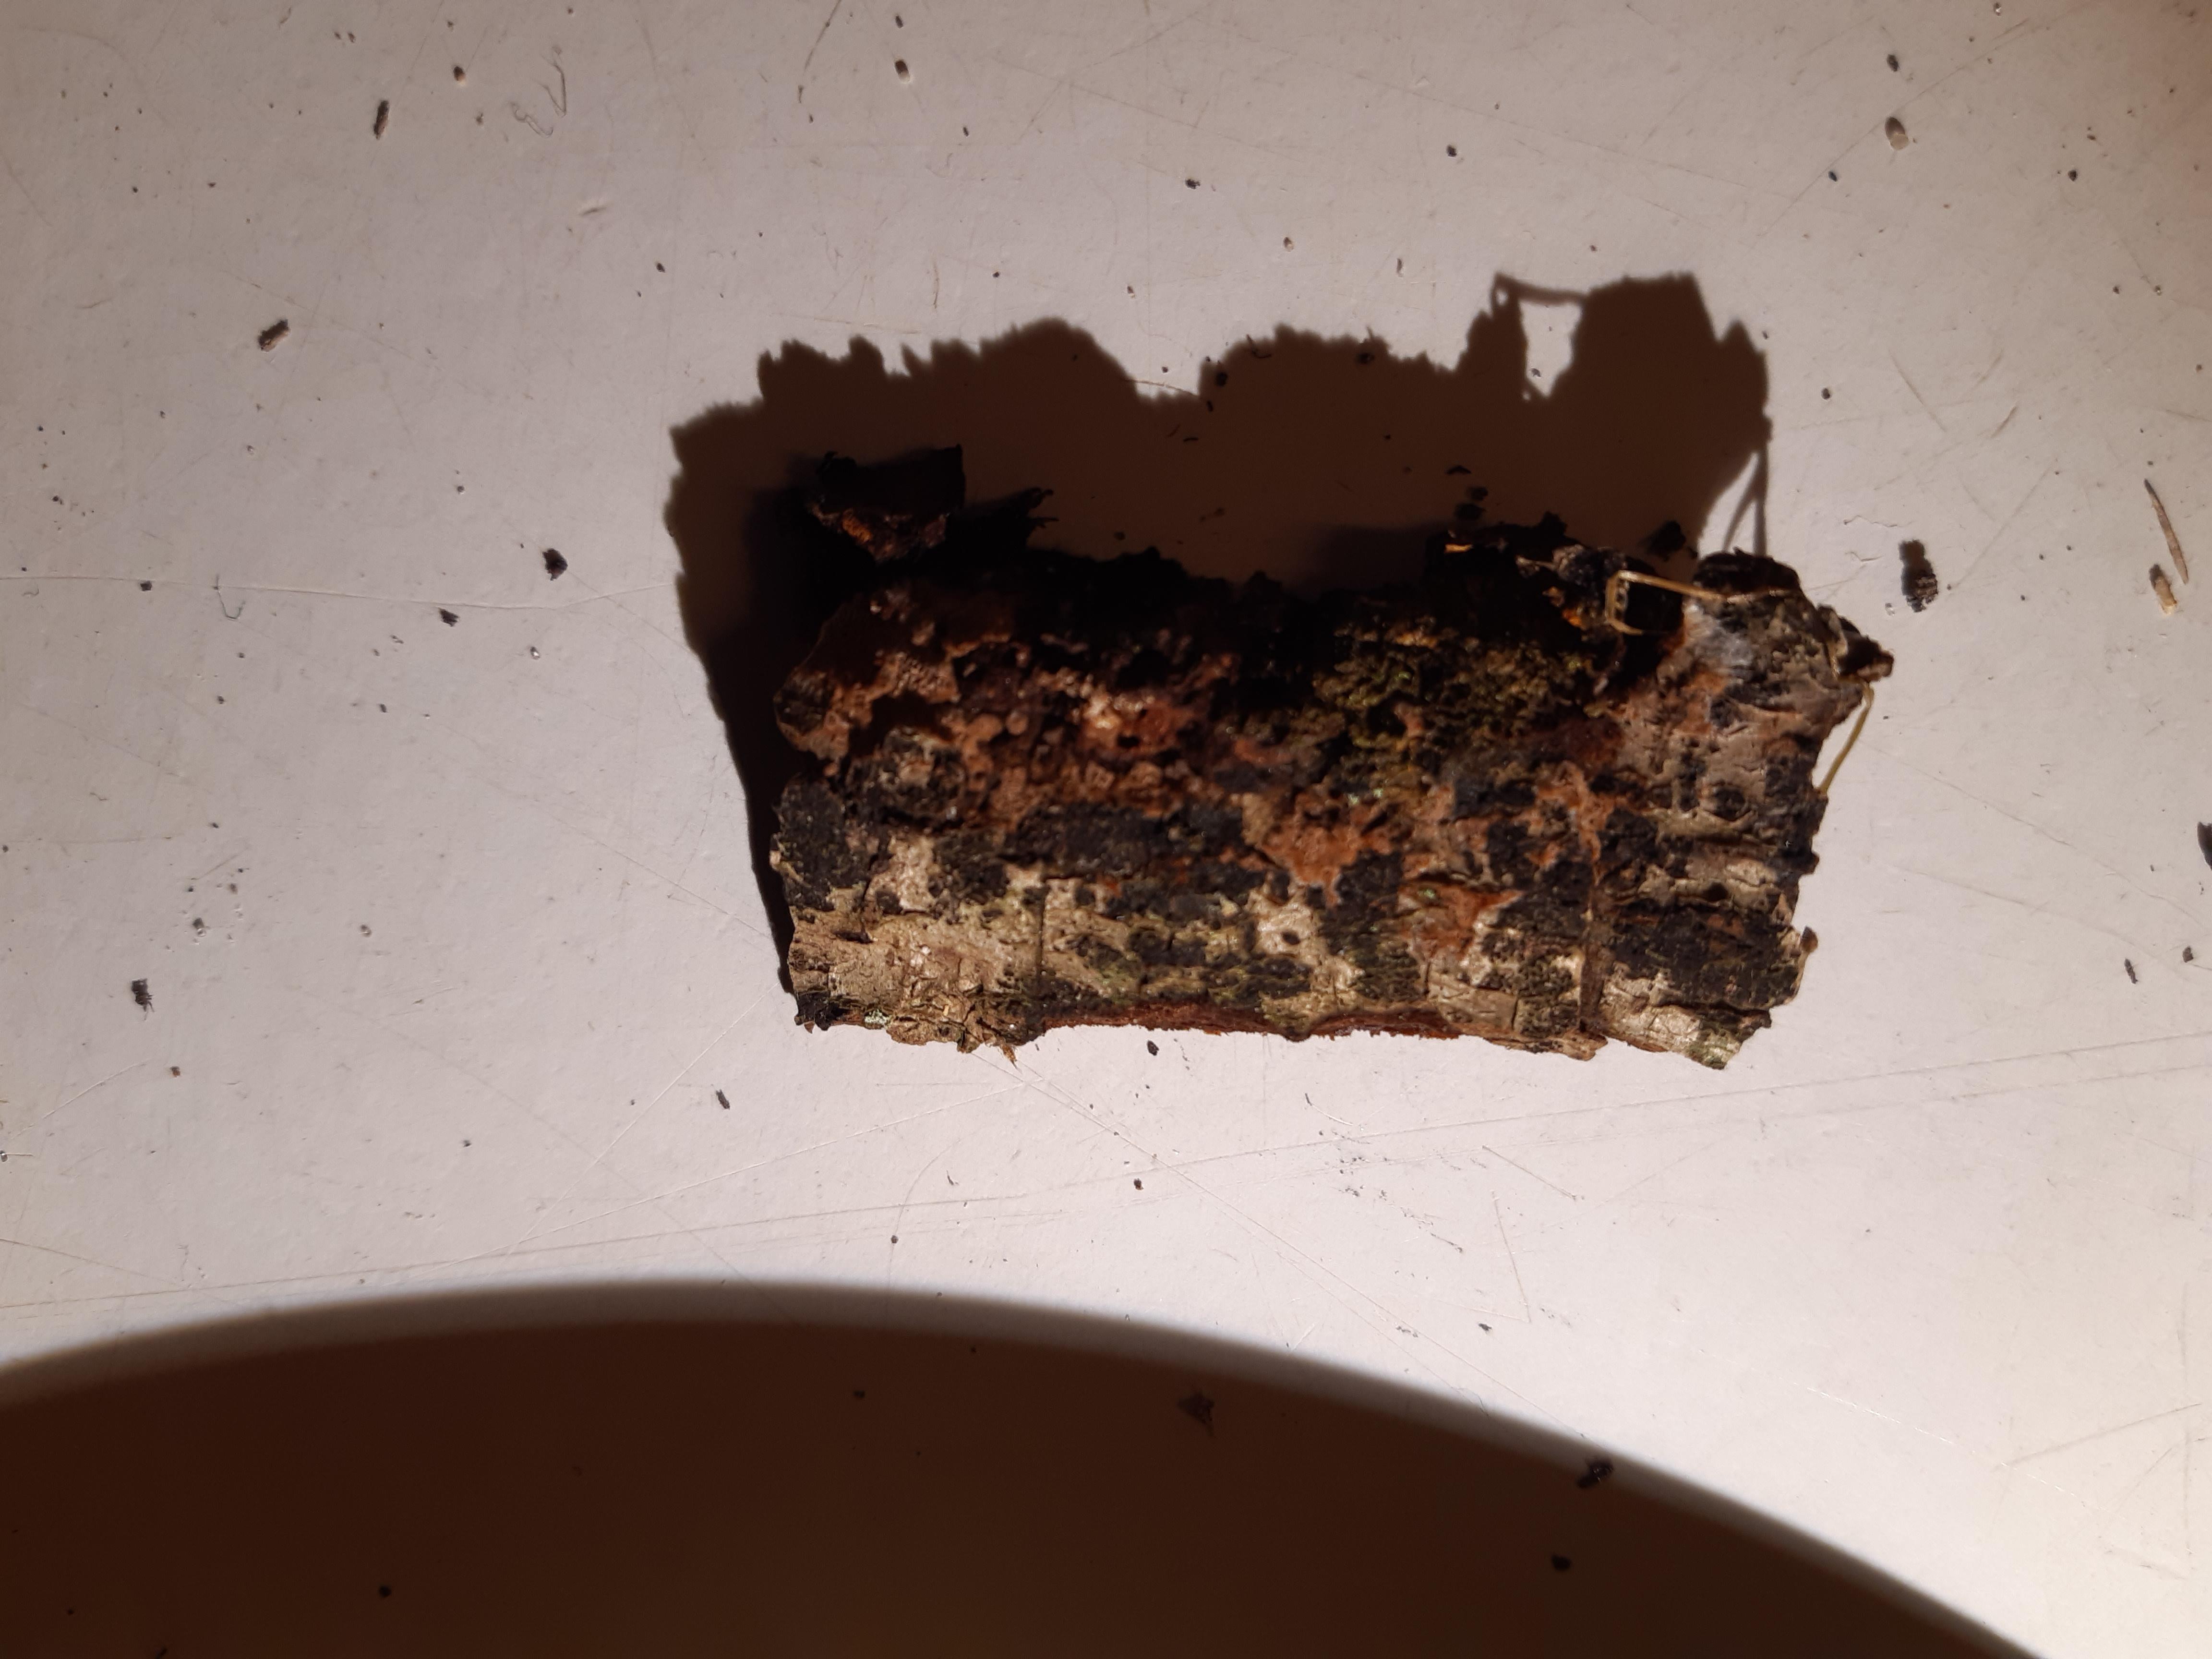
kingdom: Fungi
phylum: Ascomycota
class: Leotiomycetes
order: Rhytismatales
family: Ascodichaenaceae
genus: Ascodichaena
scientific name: Ascodichaena rugosa
